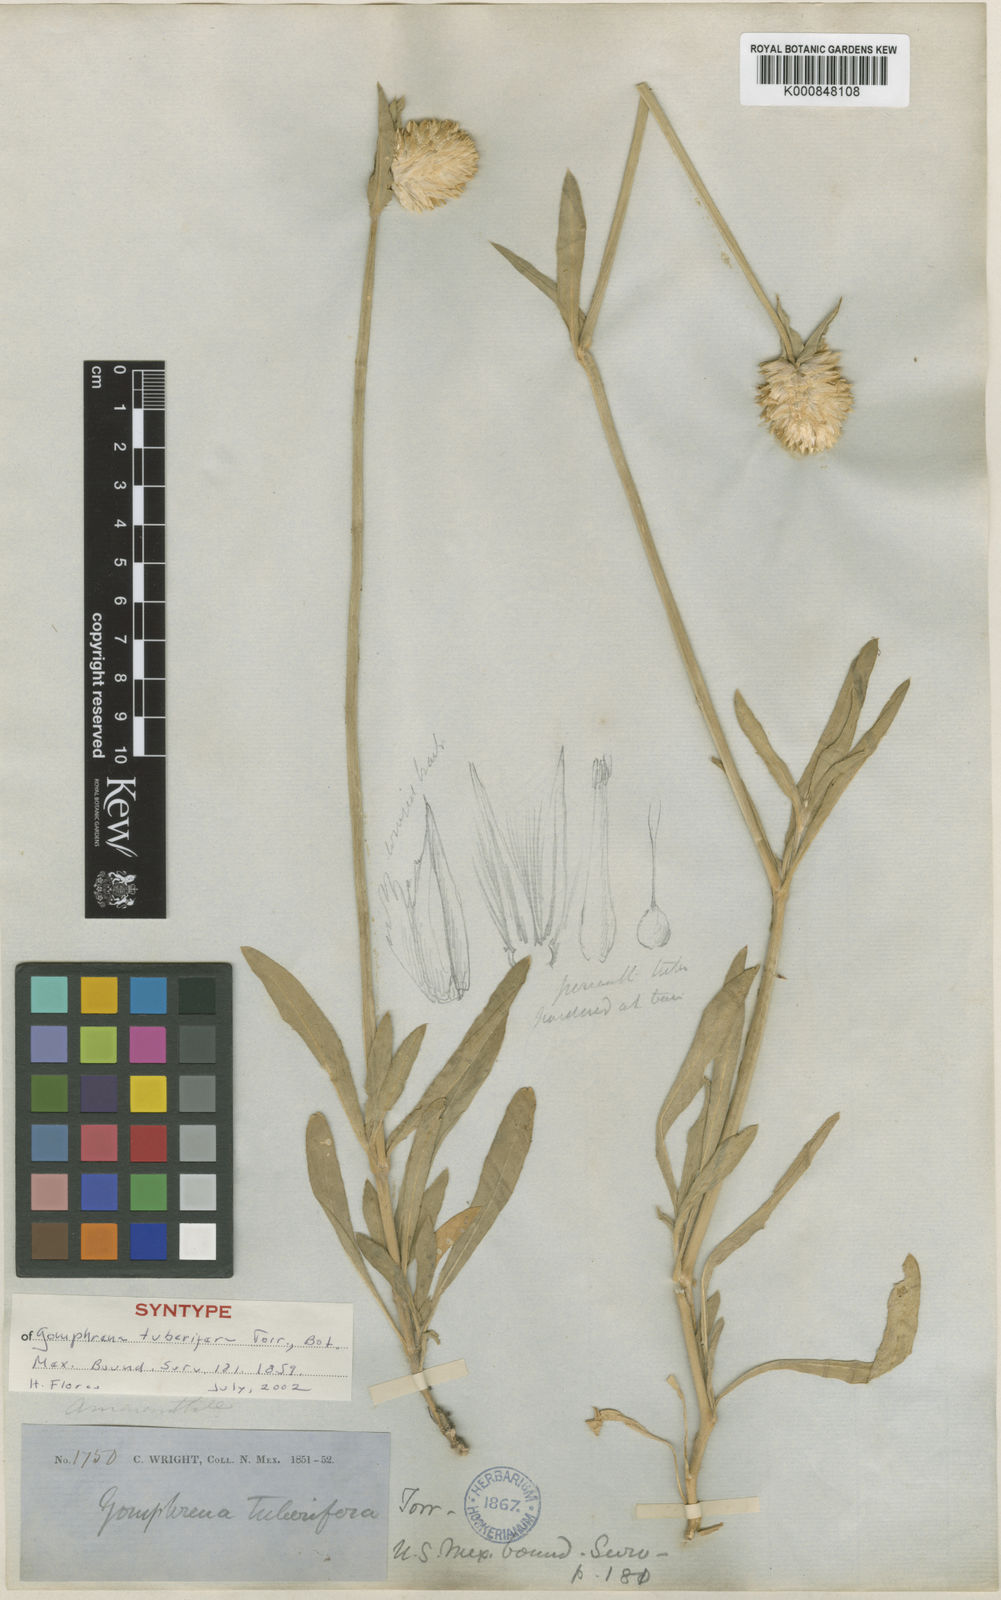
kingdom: Plantae
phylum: Tracheophyta
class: Magnoliopsida
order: Caryophyllales
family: Amaranthaceae
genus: Gomphrena
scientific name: Gomphrena haageana
